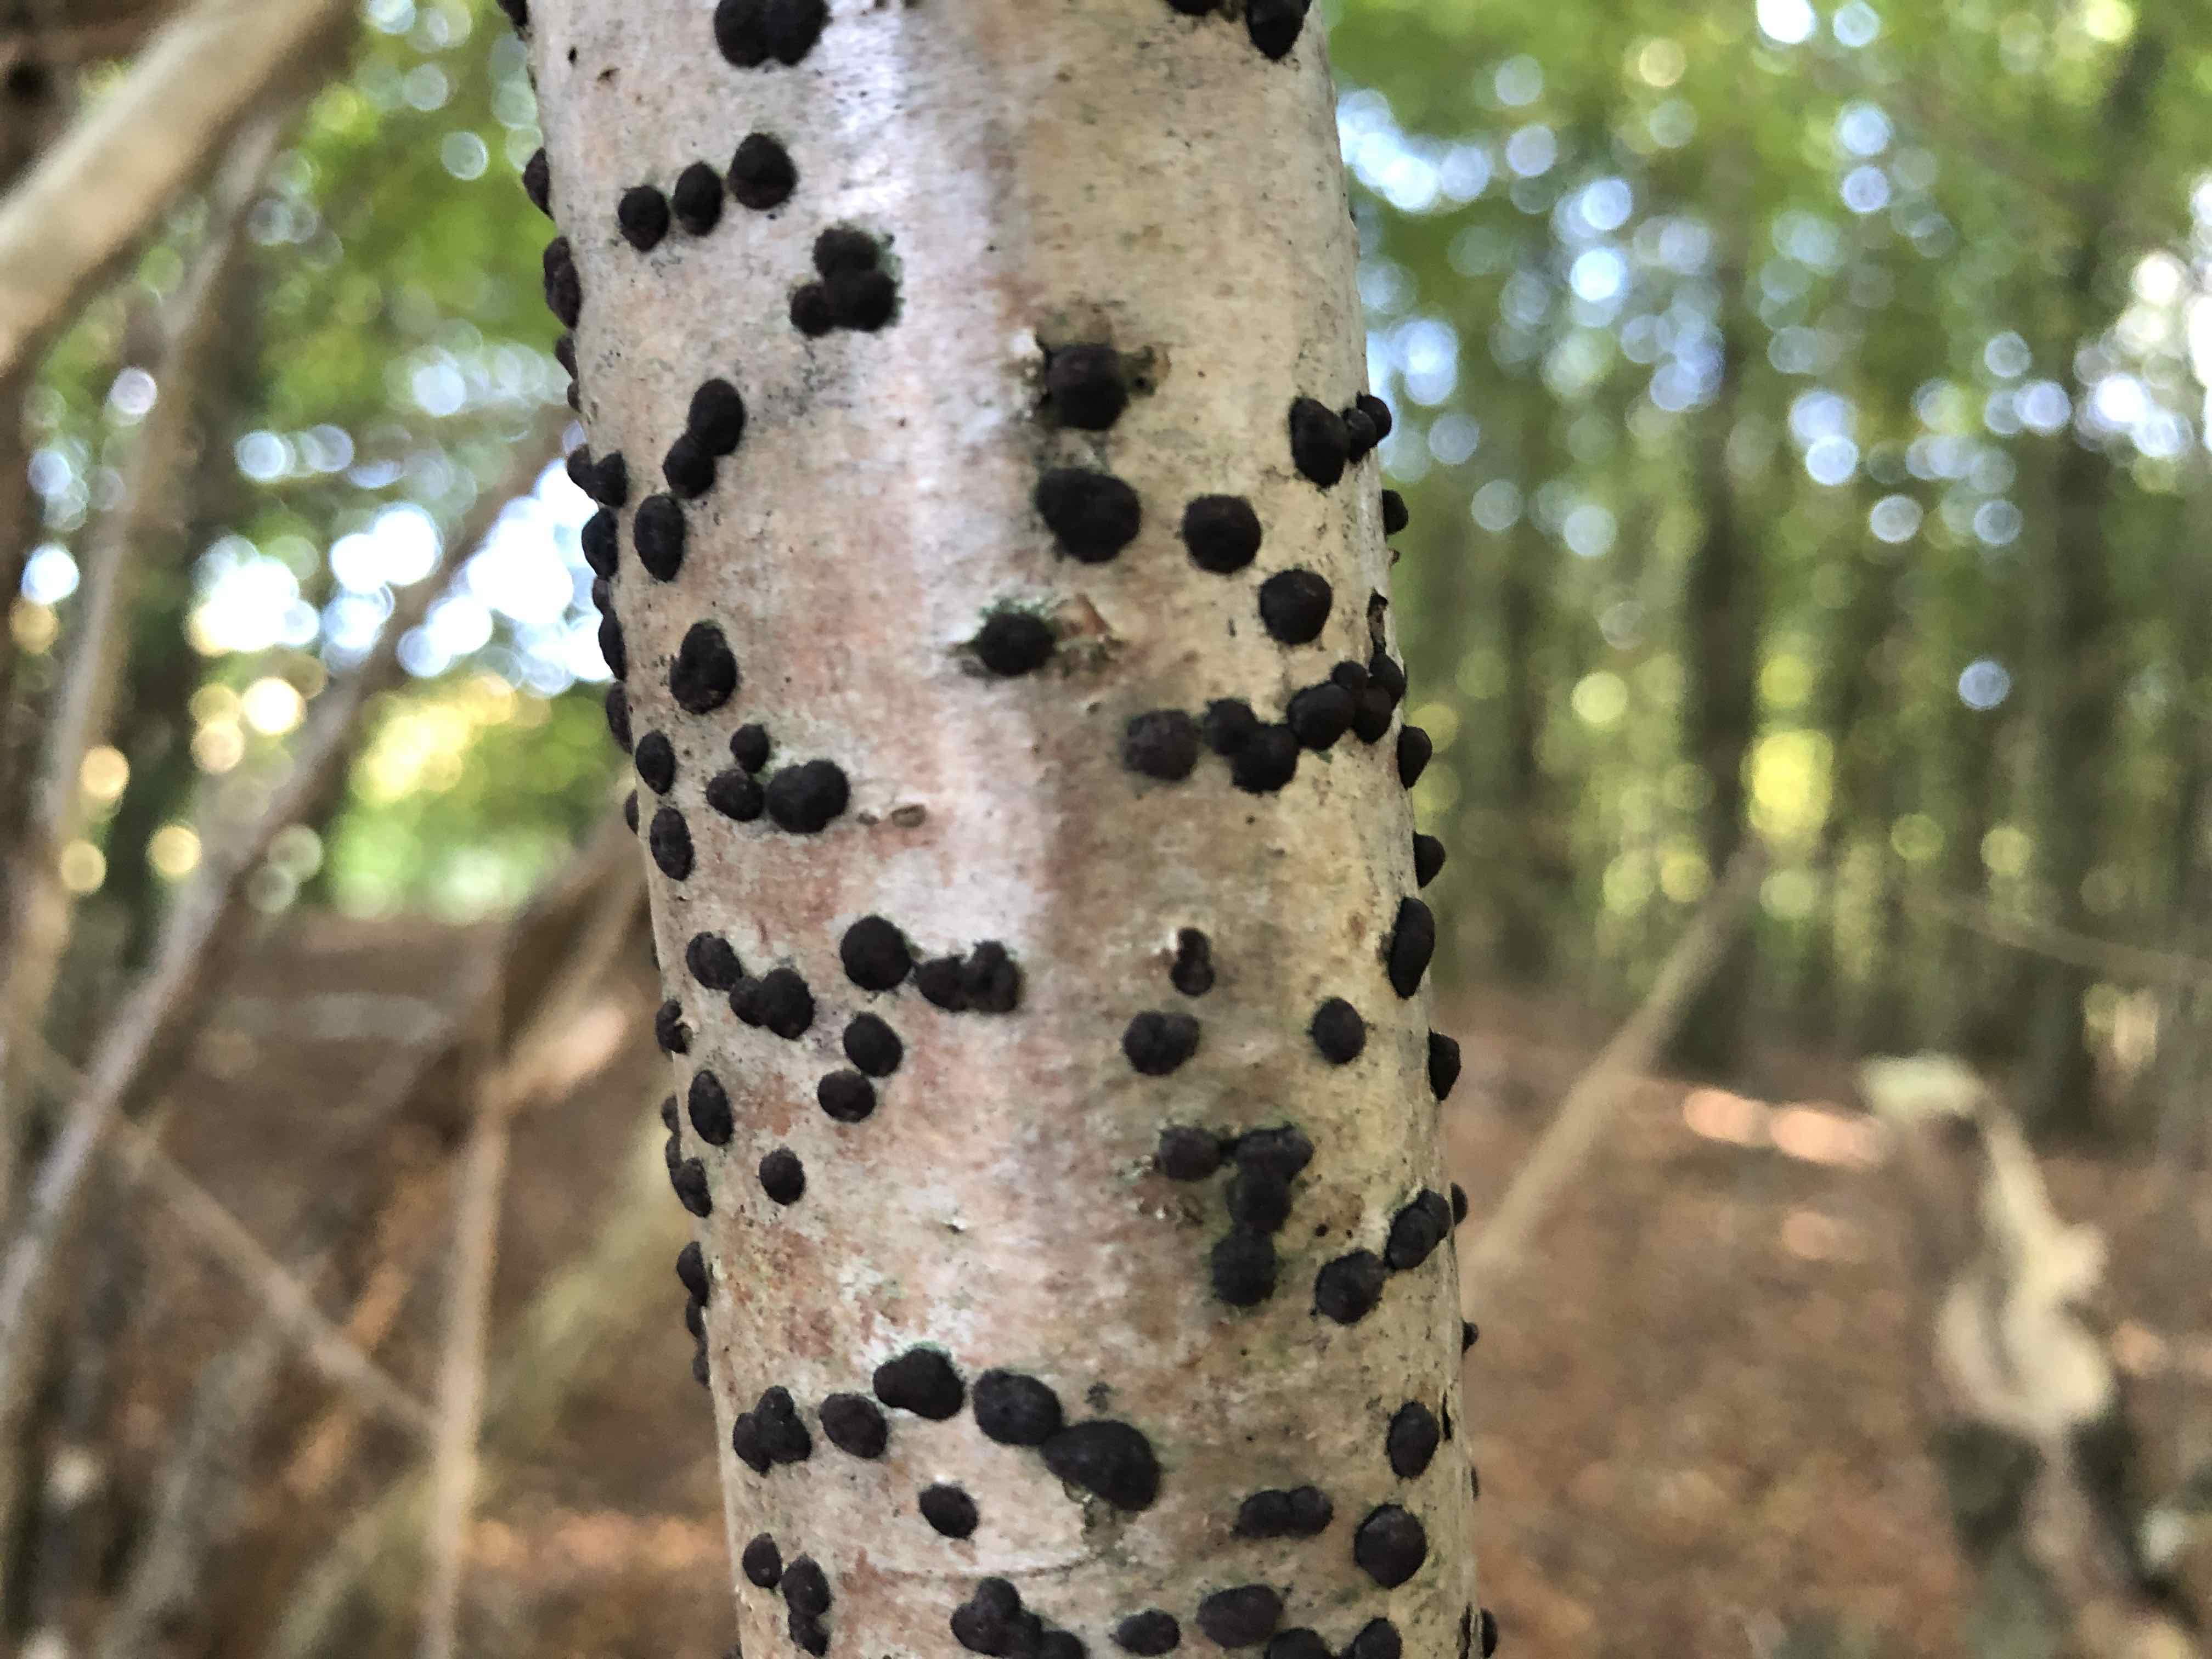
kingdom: Fungi
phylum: Ascomycota
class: Sordariomycetes
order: Xylariales
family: Hypoxylaceae
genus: Hypoxylon
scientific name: Hypoxylon fuscum
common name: kegleformet kulbær
